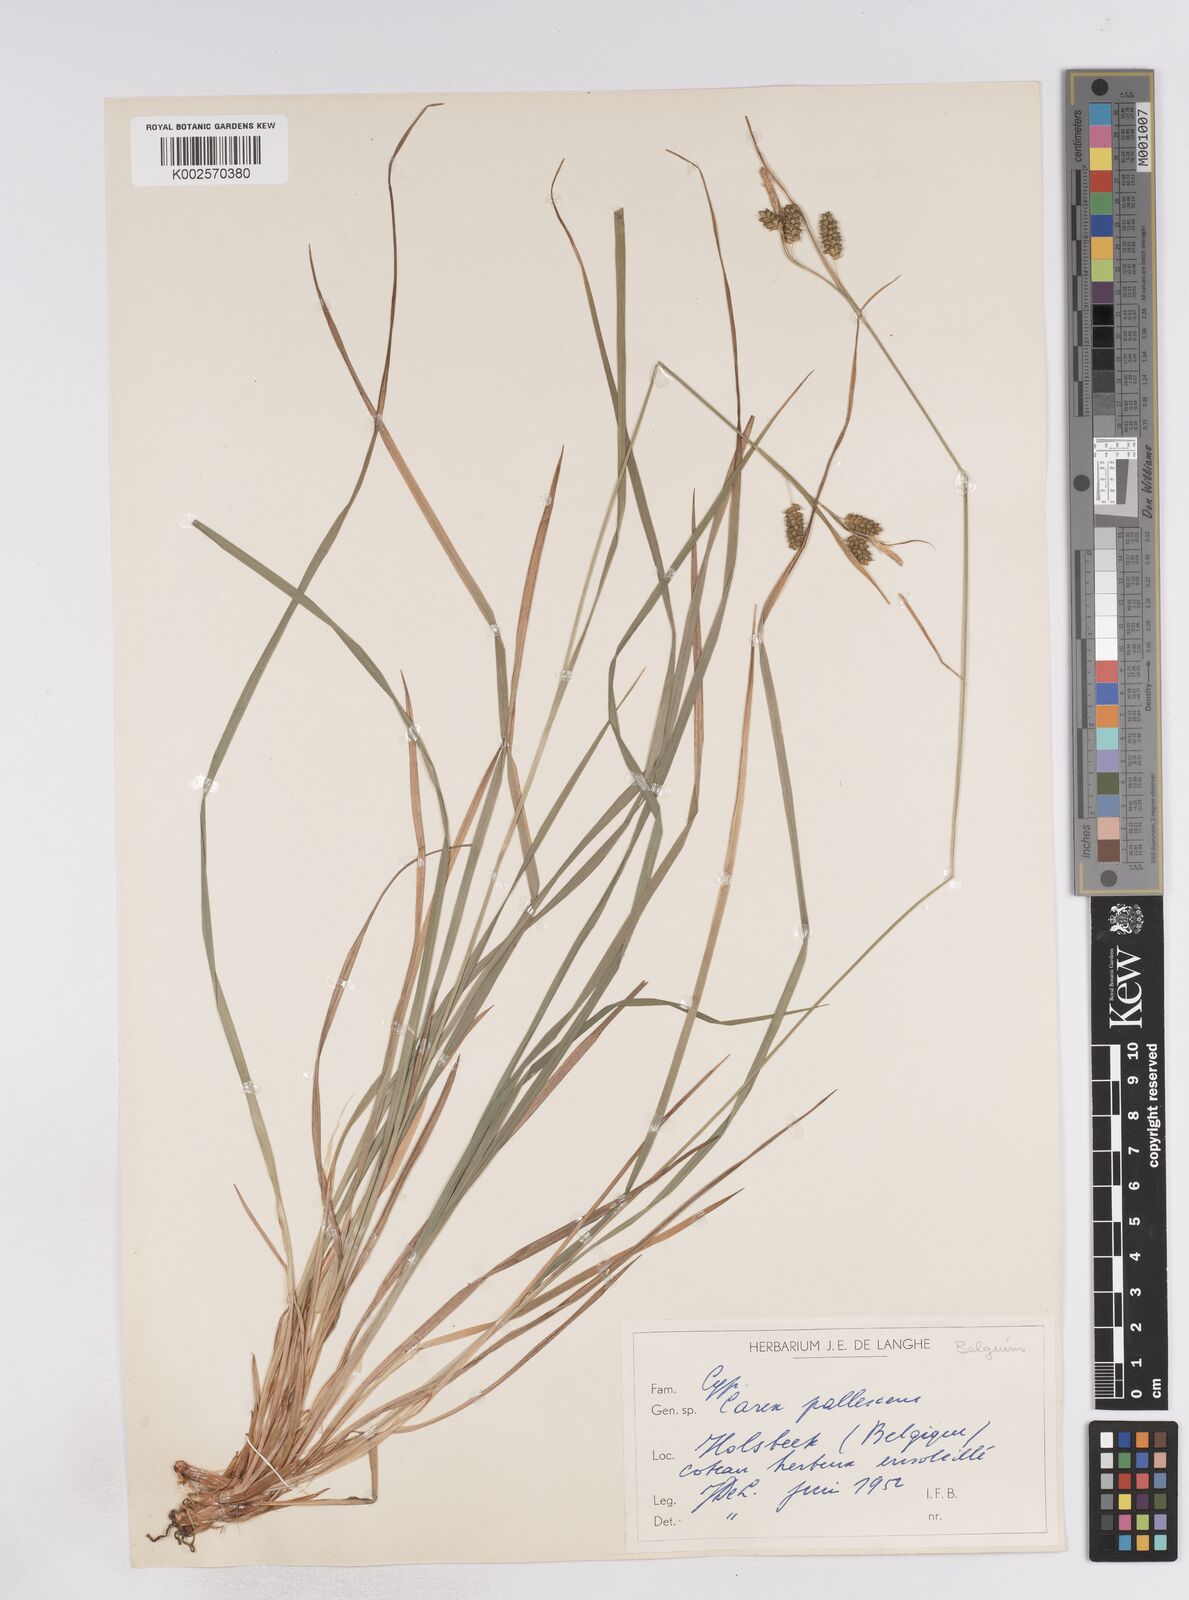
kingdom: Plantae
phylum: Tracheophyta
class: Liliopsida
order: Poales
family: Cyperaceae
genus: Carex
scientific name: Carex pallescens
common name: Pale sedge
